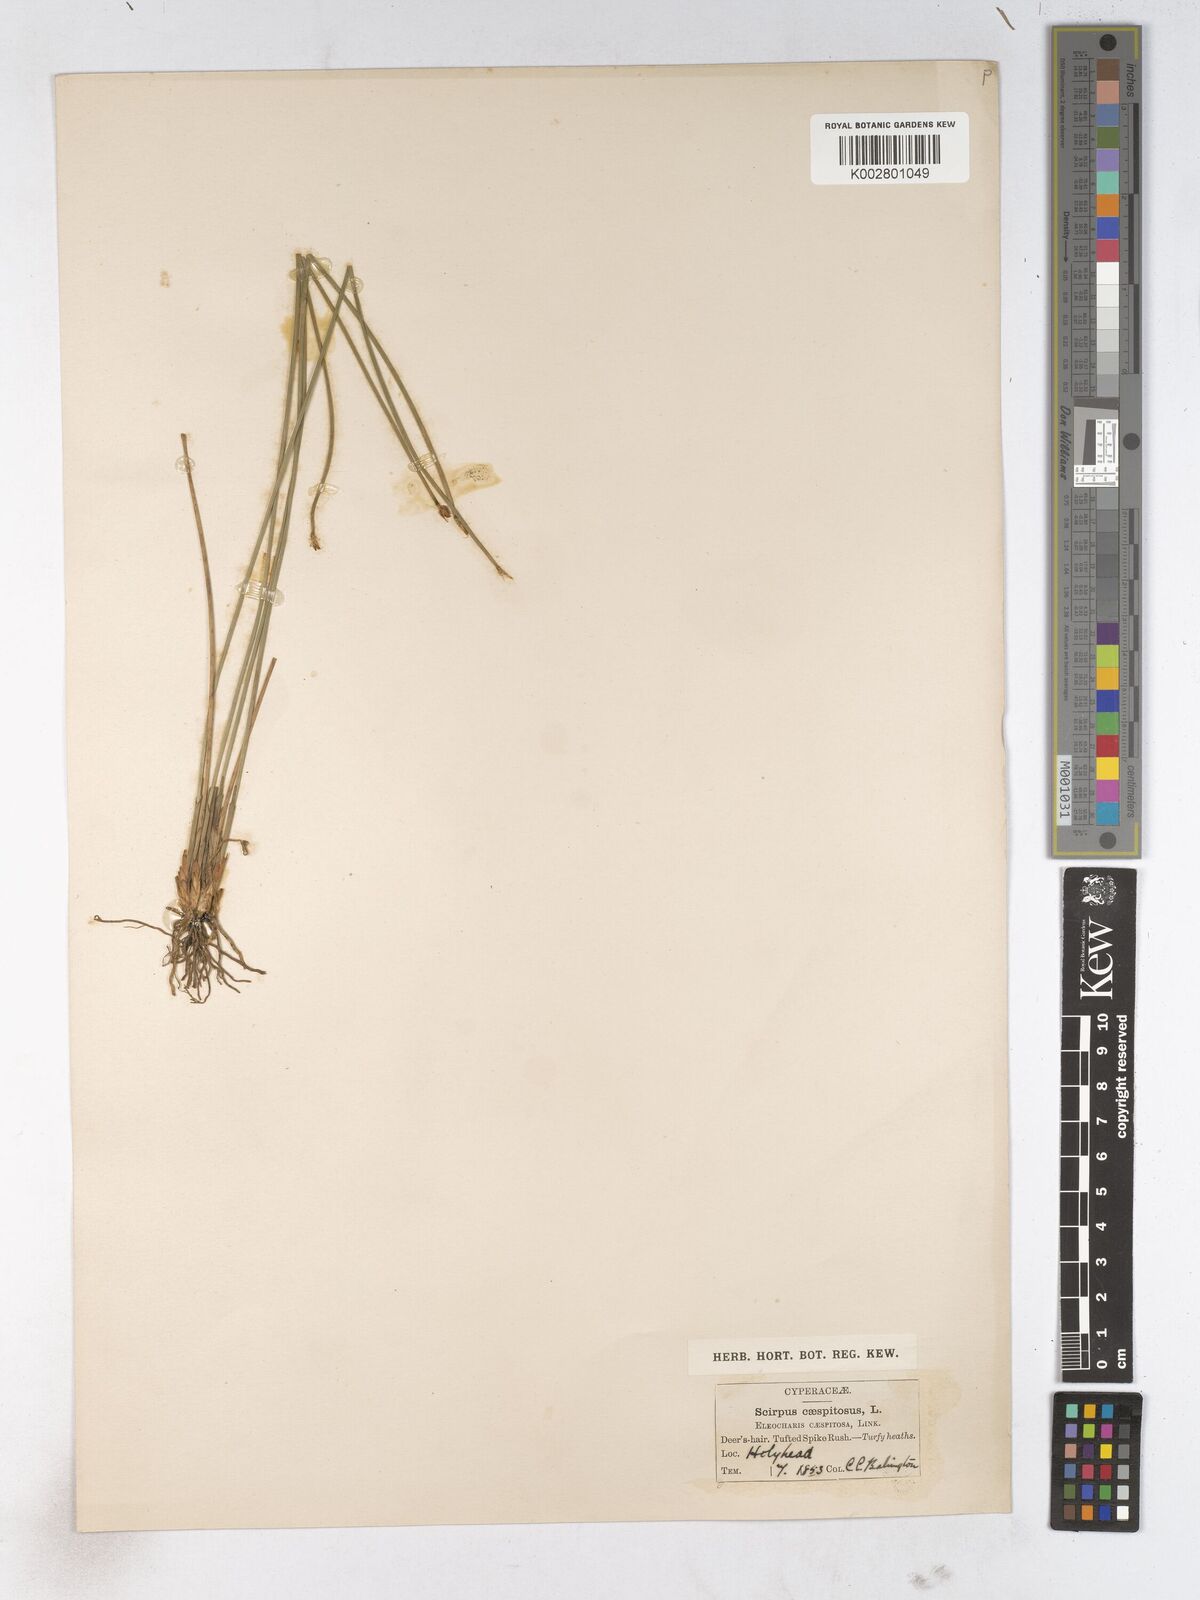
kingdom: Plantae
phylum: Tracheophyta
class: Liliopsida
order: Poales
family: Cyperaceae
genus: Trichophorum
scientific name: Trichophorum cespitosum
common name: Cespitose bulrush
